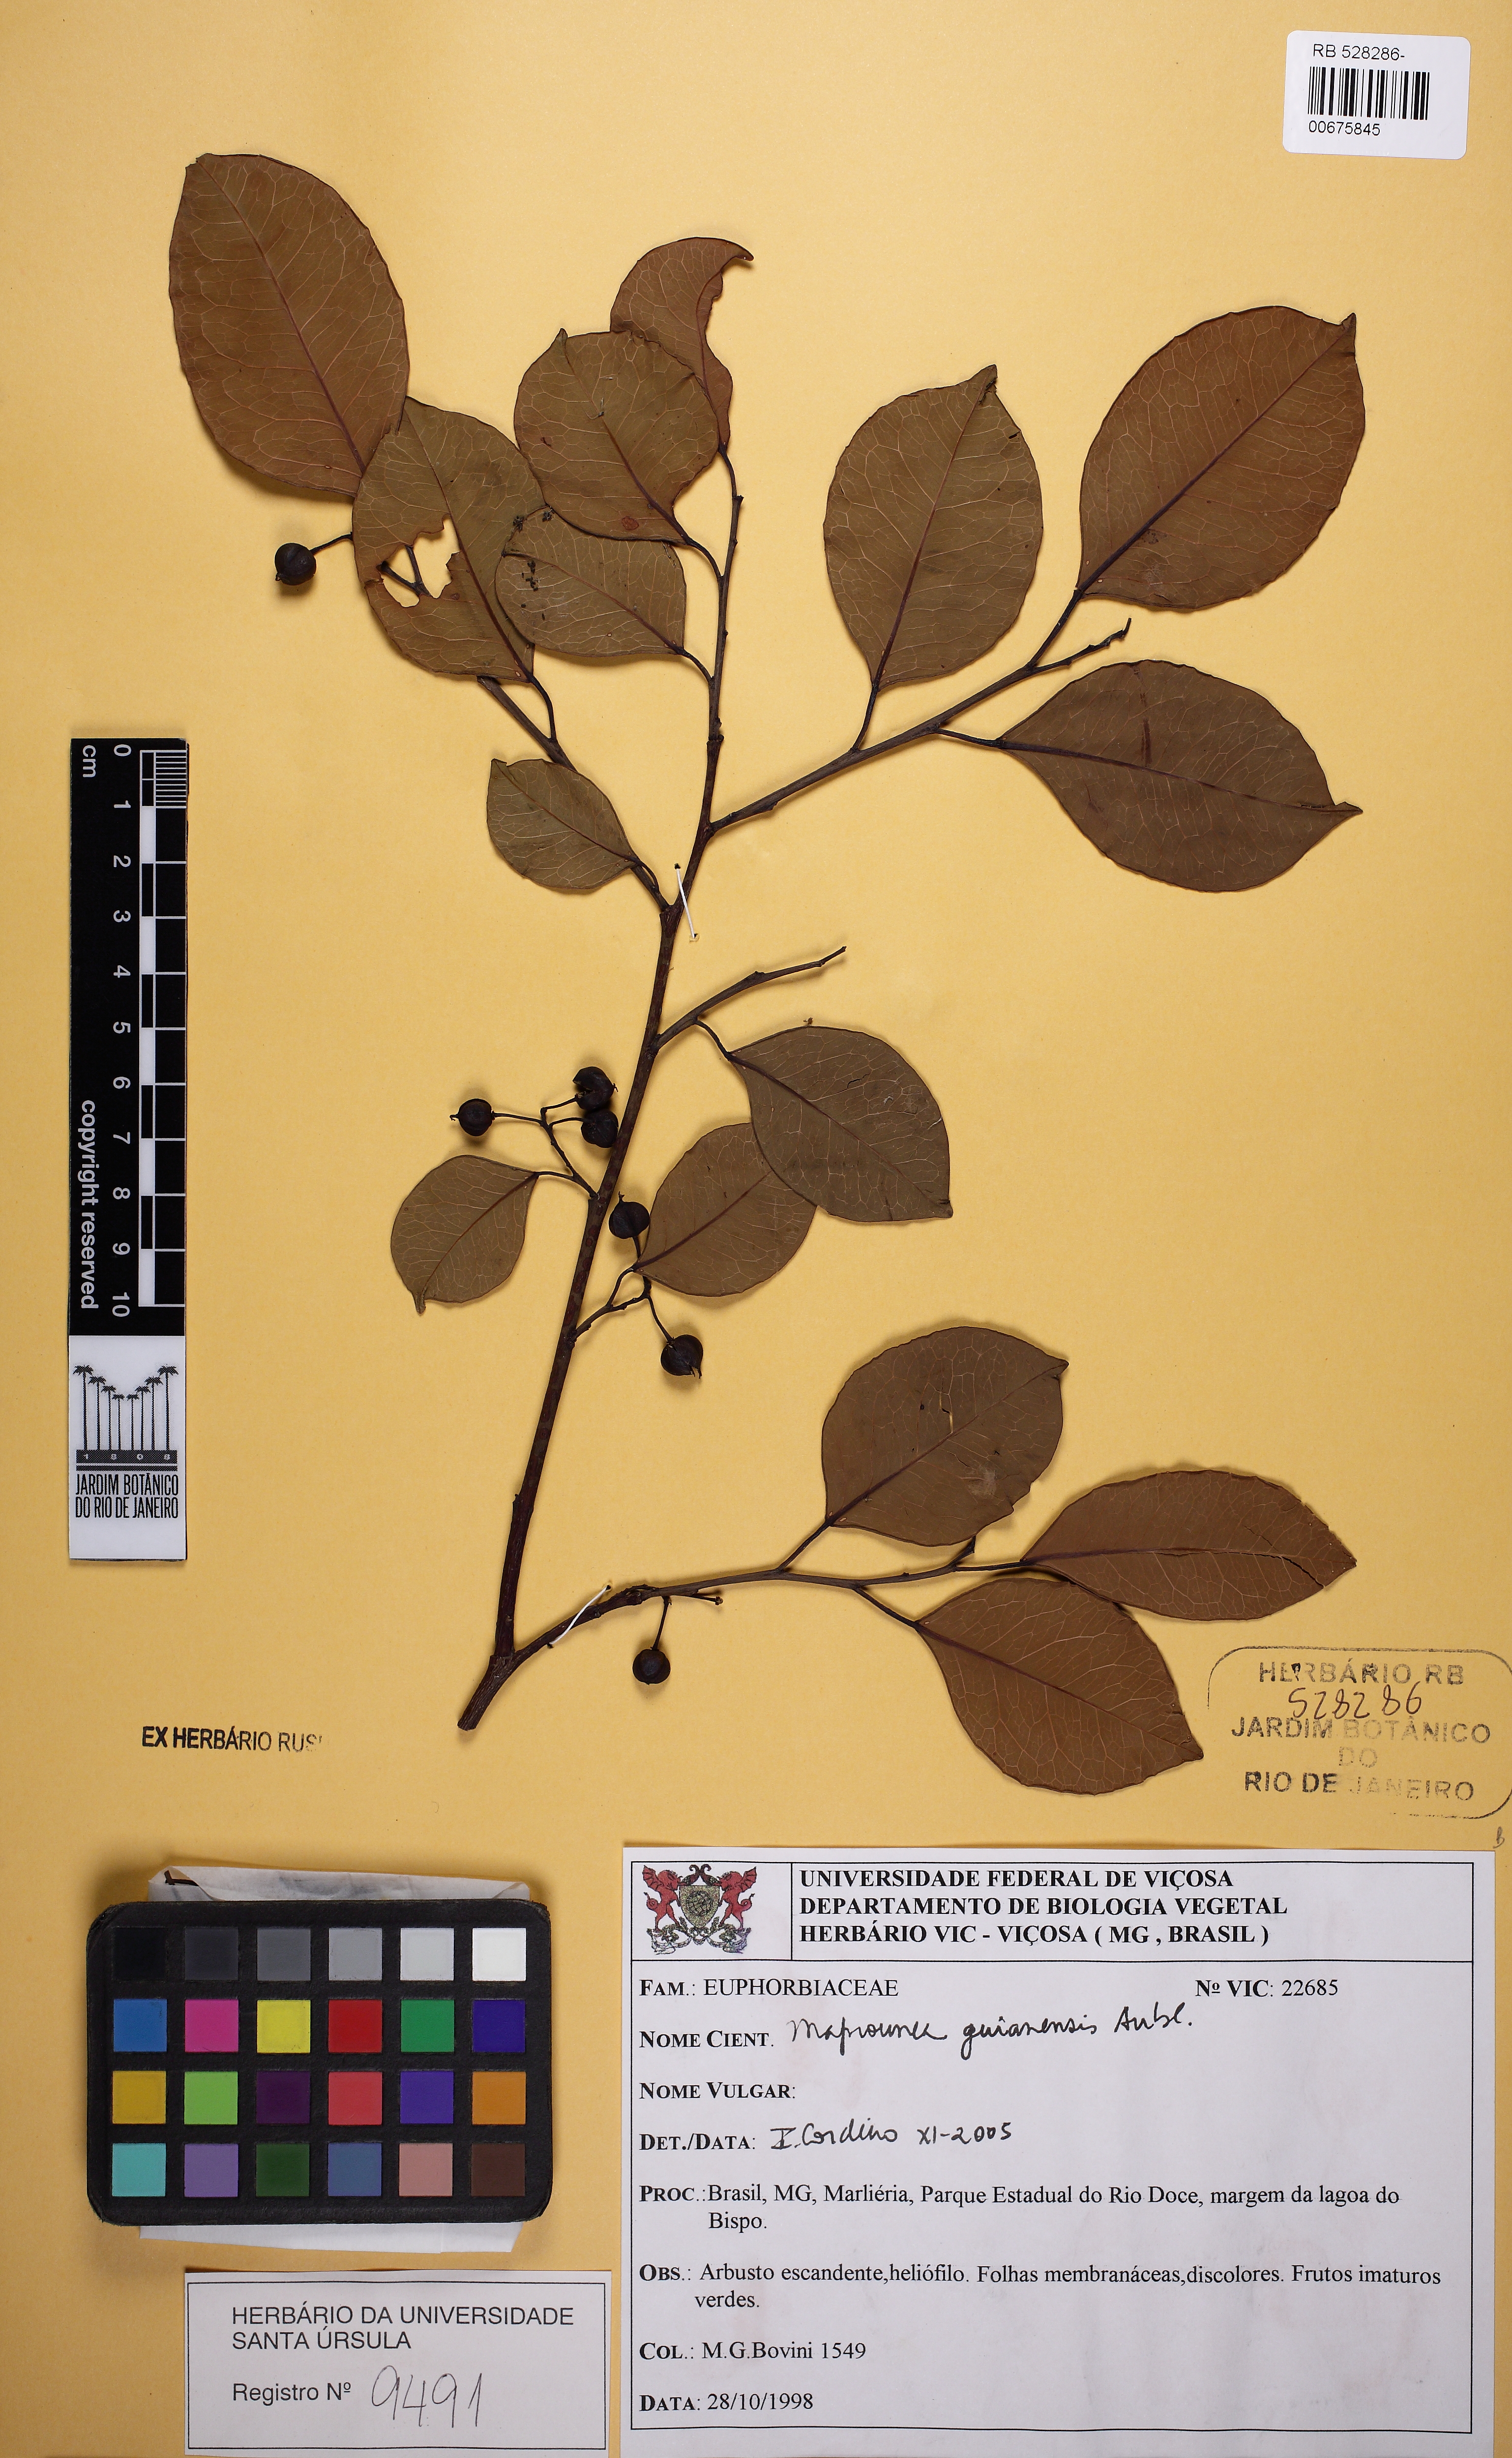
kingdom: Plantae
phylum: Tracheophyta
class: Magnoliopsida
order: Malpighiales
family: Euphorbiaceae
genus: Maprounea
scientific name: Maprounea guianensis
